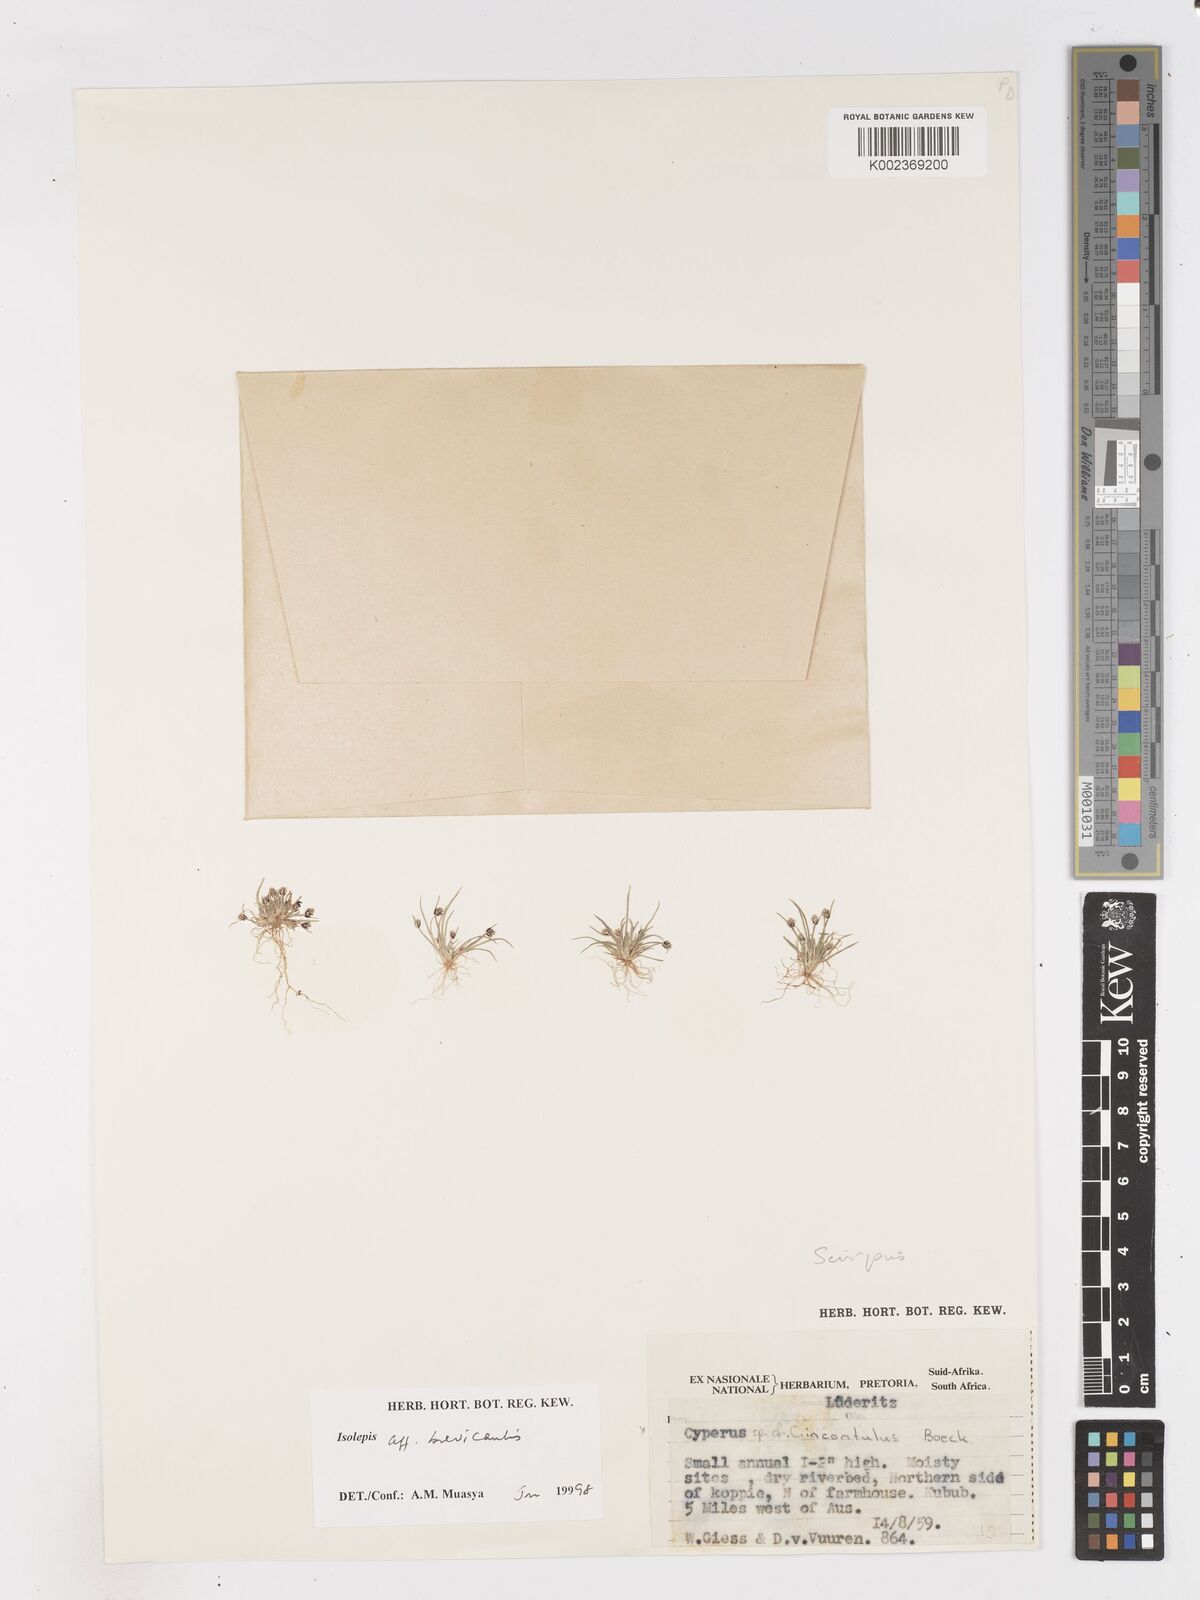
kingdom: Plantae
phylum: Tracheophyta
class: Liliopsida
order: Poales
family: Cyperaceae
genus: Isolepis
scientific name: Isolepis brevicaulis
